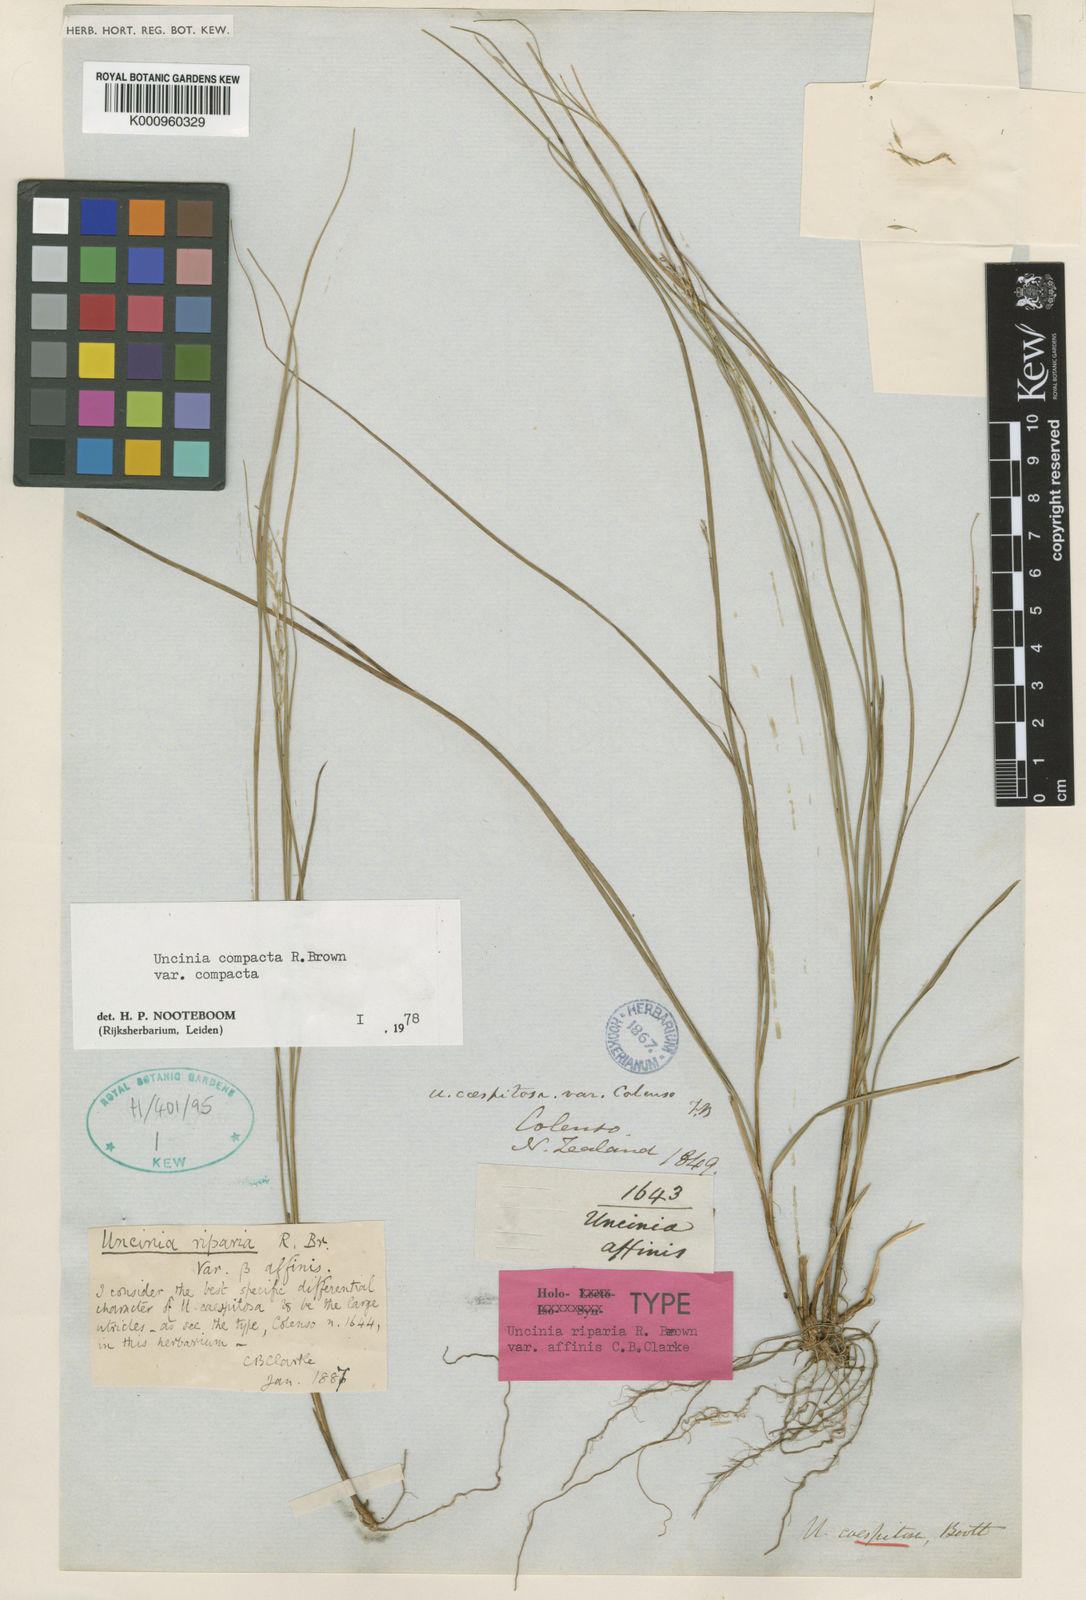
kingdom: Plantae
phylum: Tracheophyta
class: Liliopsida
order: Poales
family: Cyperaceae
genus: Carex
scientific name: Carex umbricola
